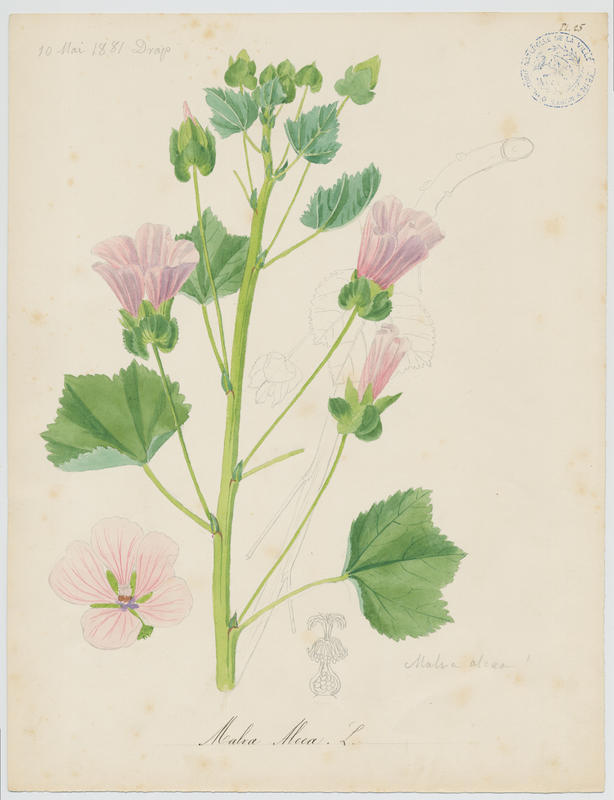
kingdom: Plantae
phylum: Tracheophyta
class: Magnoliopsida
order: Malvales
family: Malvaceae
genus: Malva
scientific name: Malva alcea
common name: Greater musk-mallow
